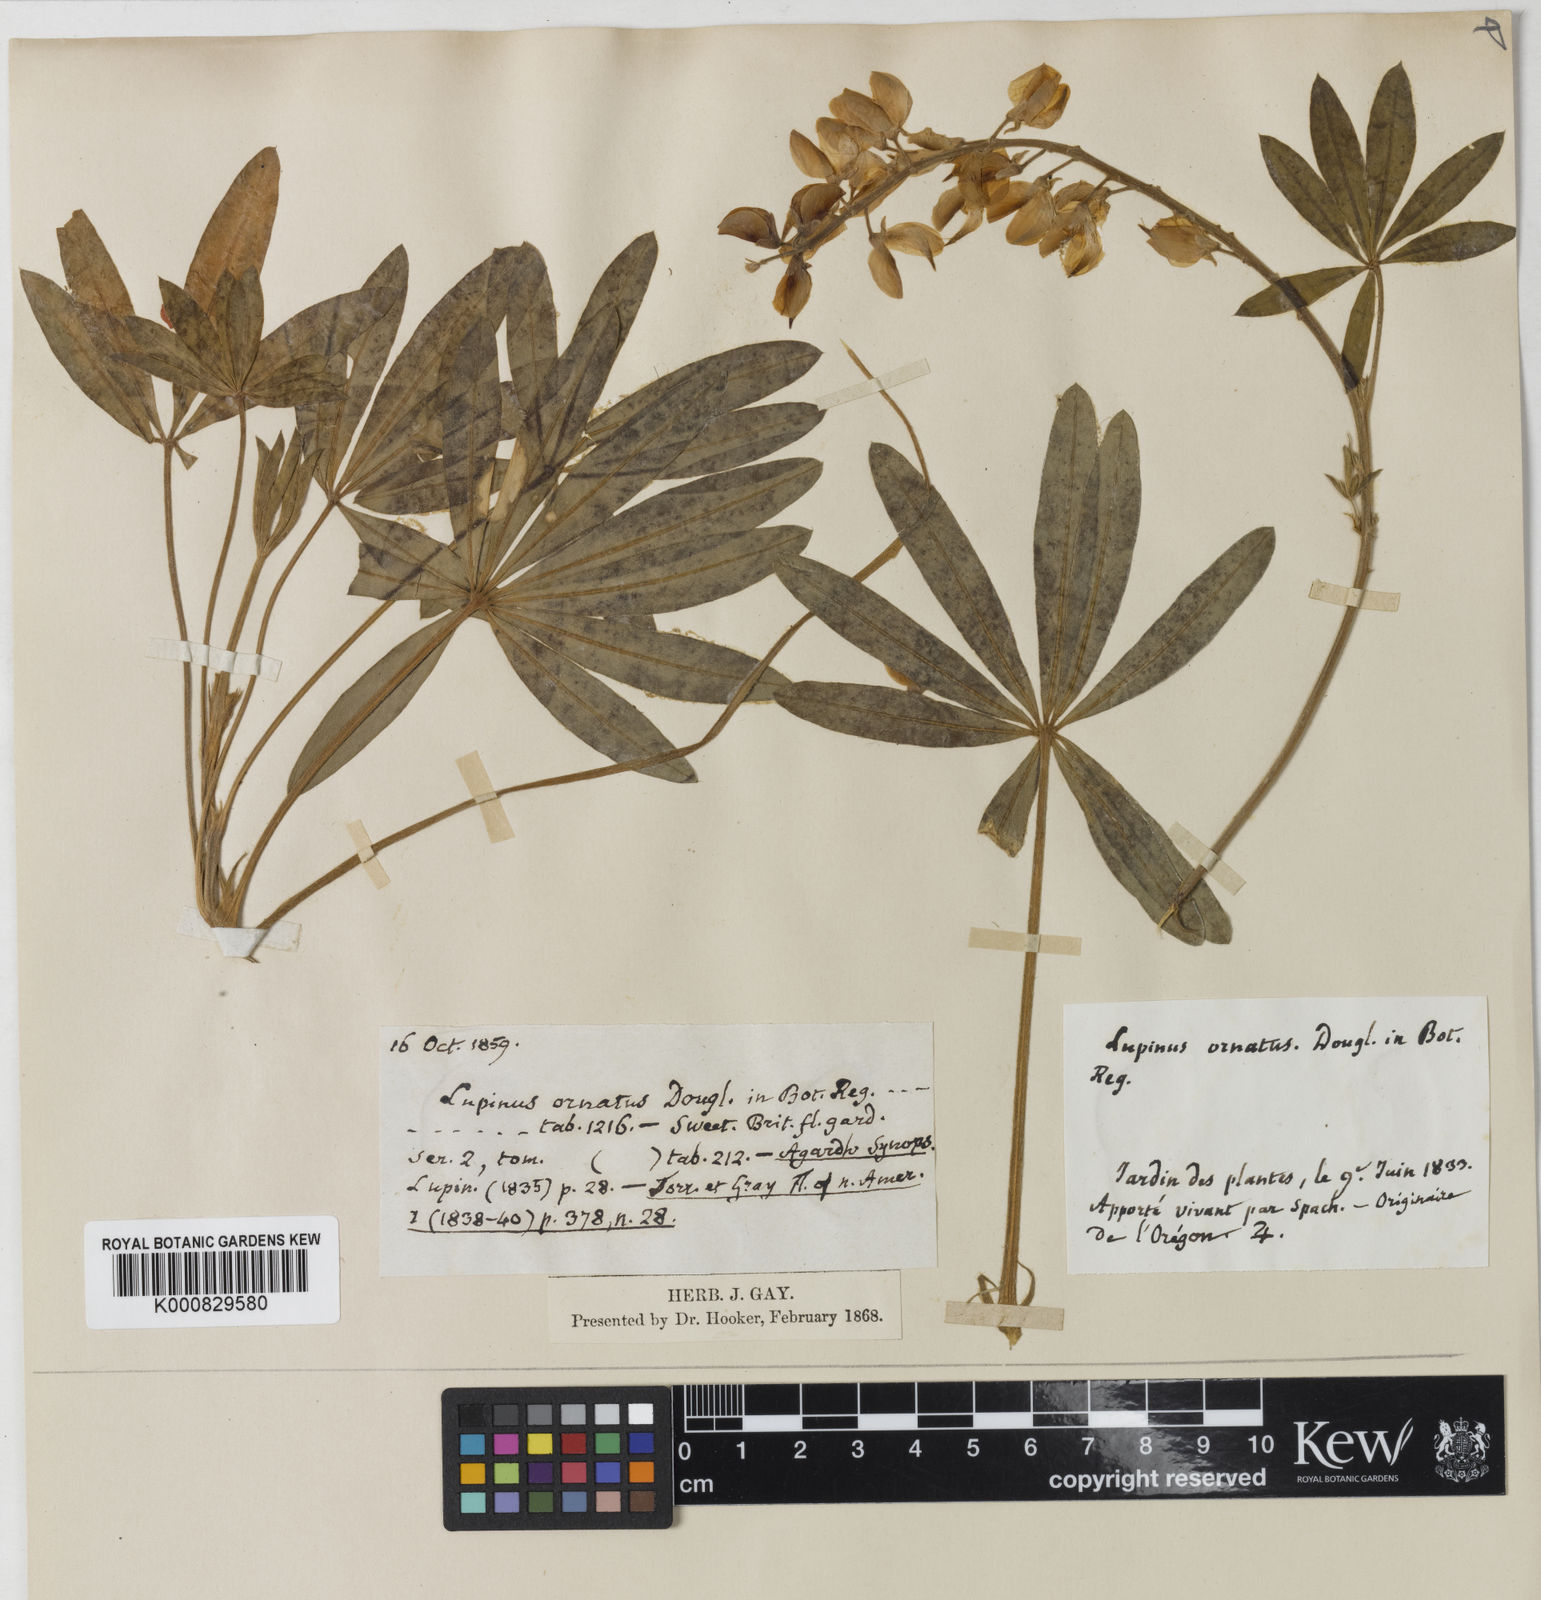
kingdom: Plantae
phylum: Tracheophyta
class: Magnoliopsida
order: Fabales
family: Fabaceae
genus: Lupinus
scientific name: Lupinus ornatus
